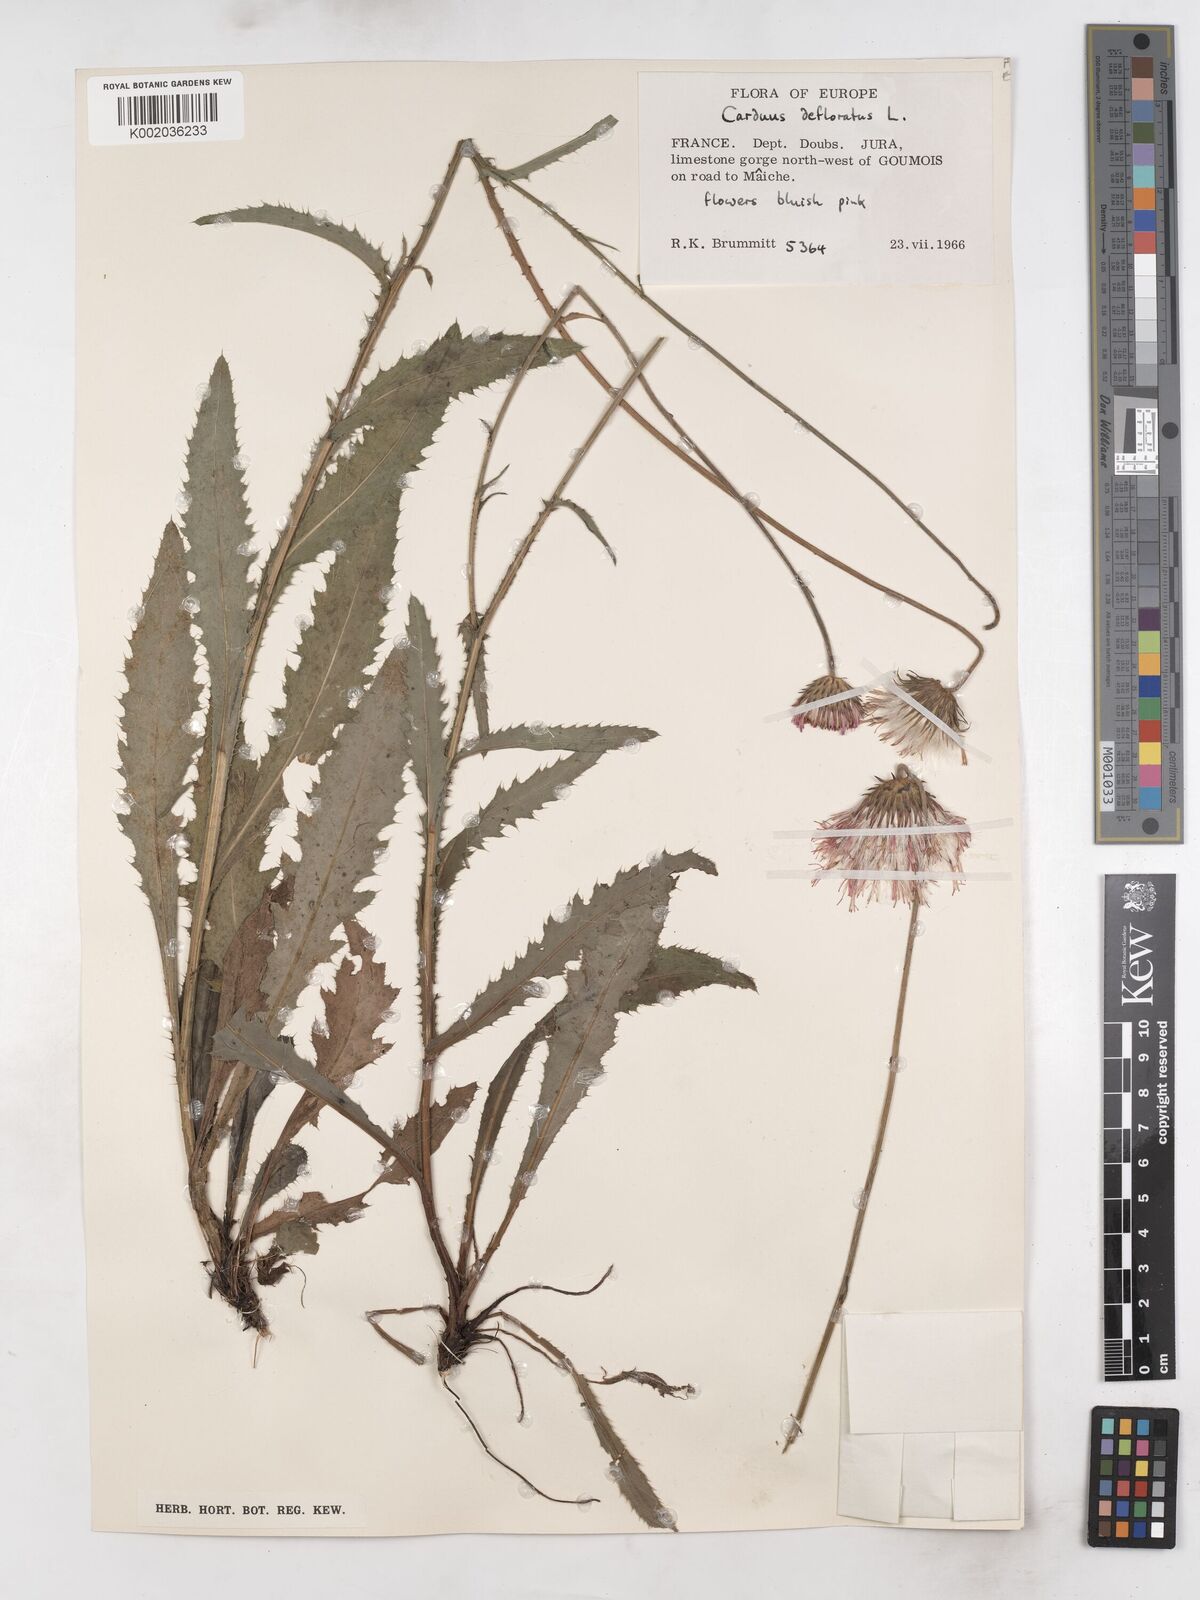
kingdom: Plantae
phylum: Tracheophyta
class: Magnoliopsida
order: Asterales
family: Asteraceae
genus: Carduus
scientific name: Carduus defloratus
